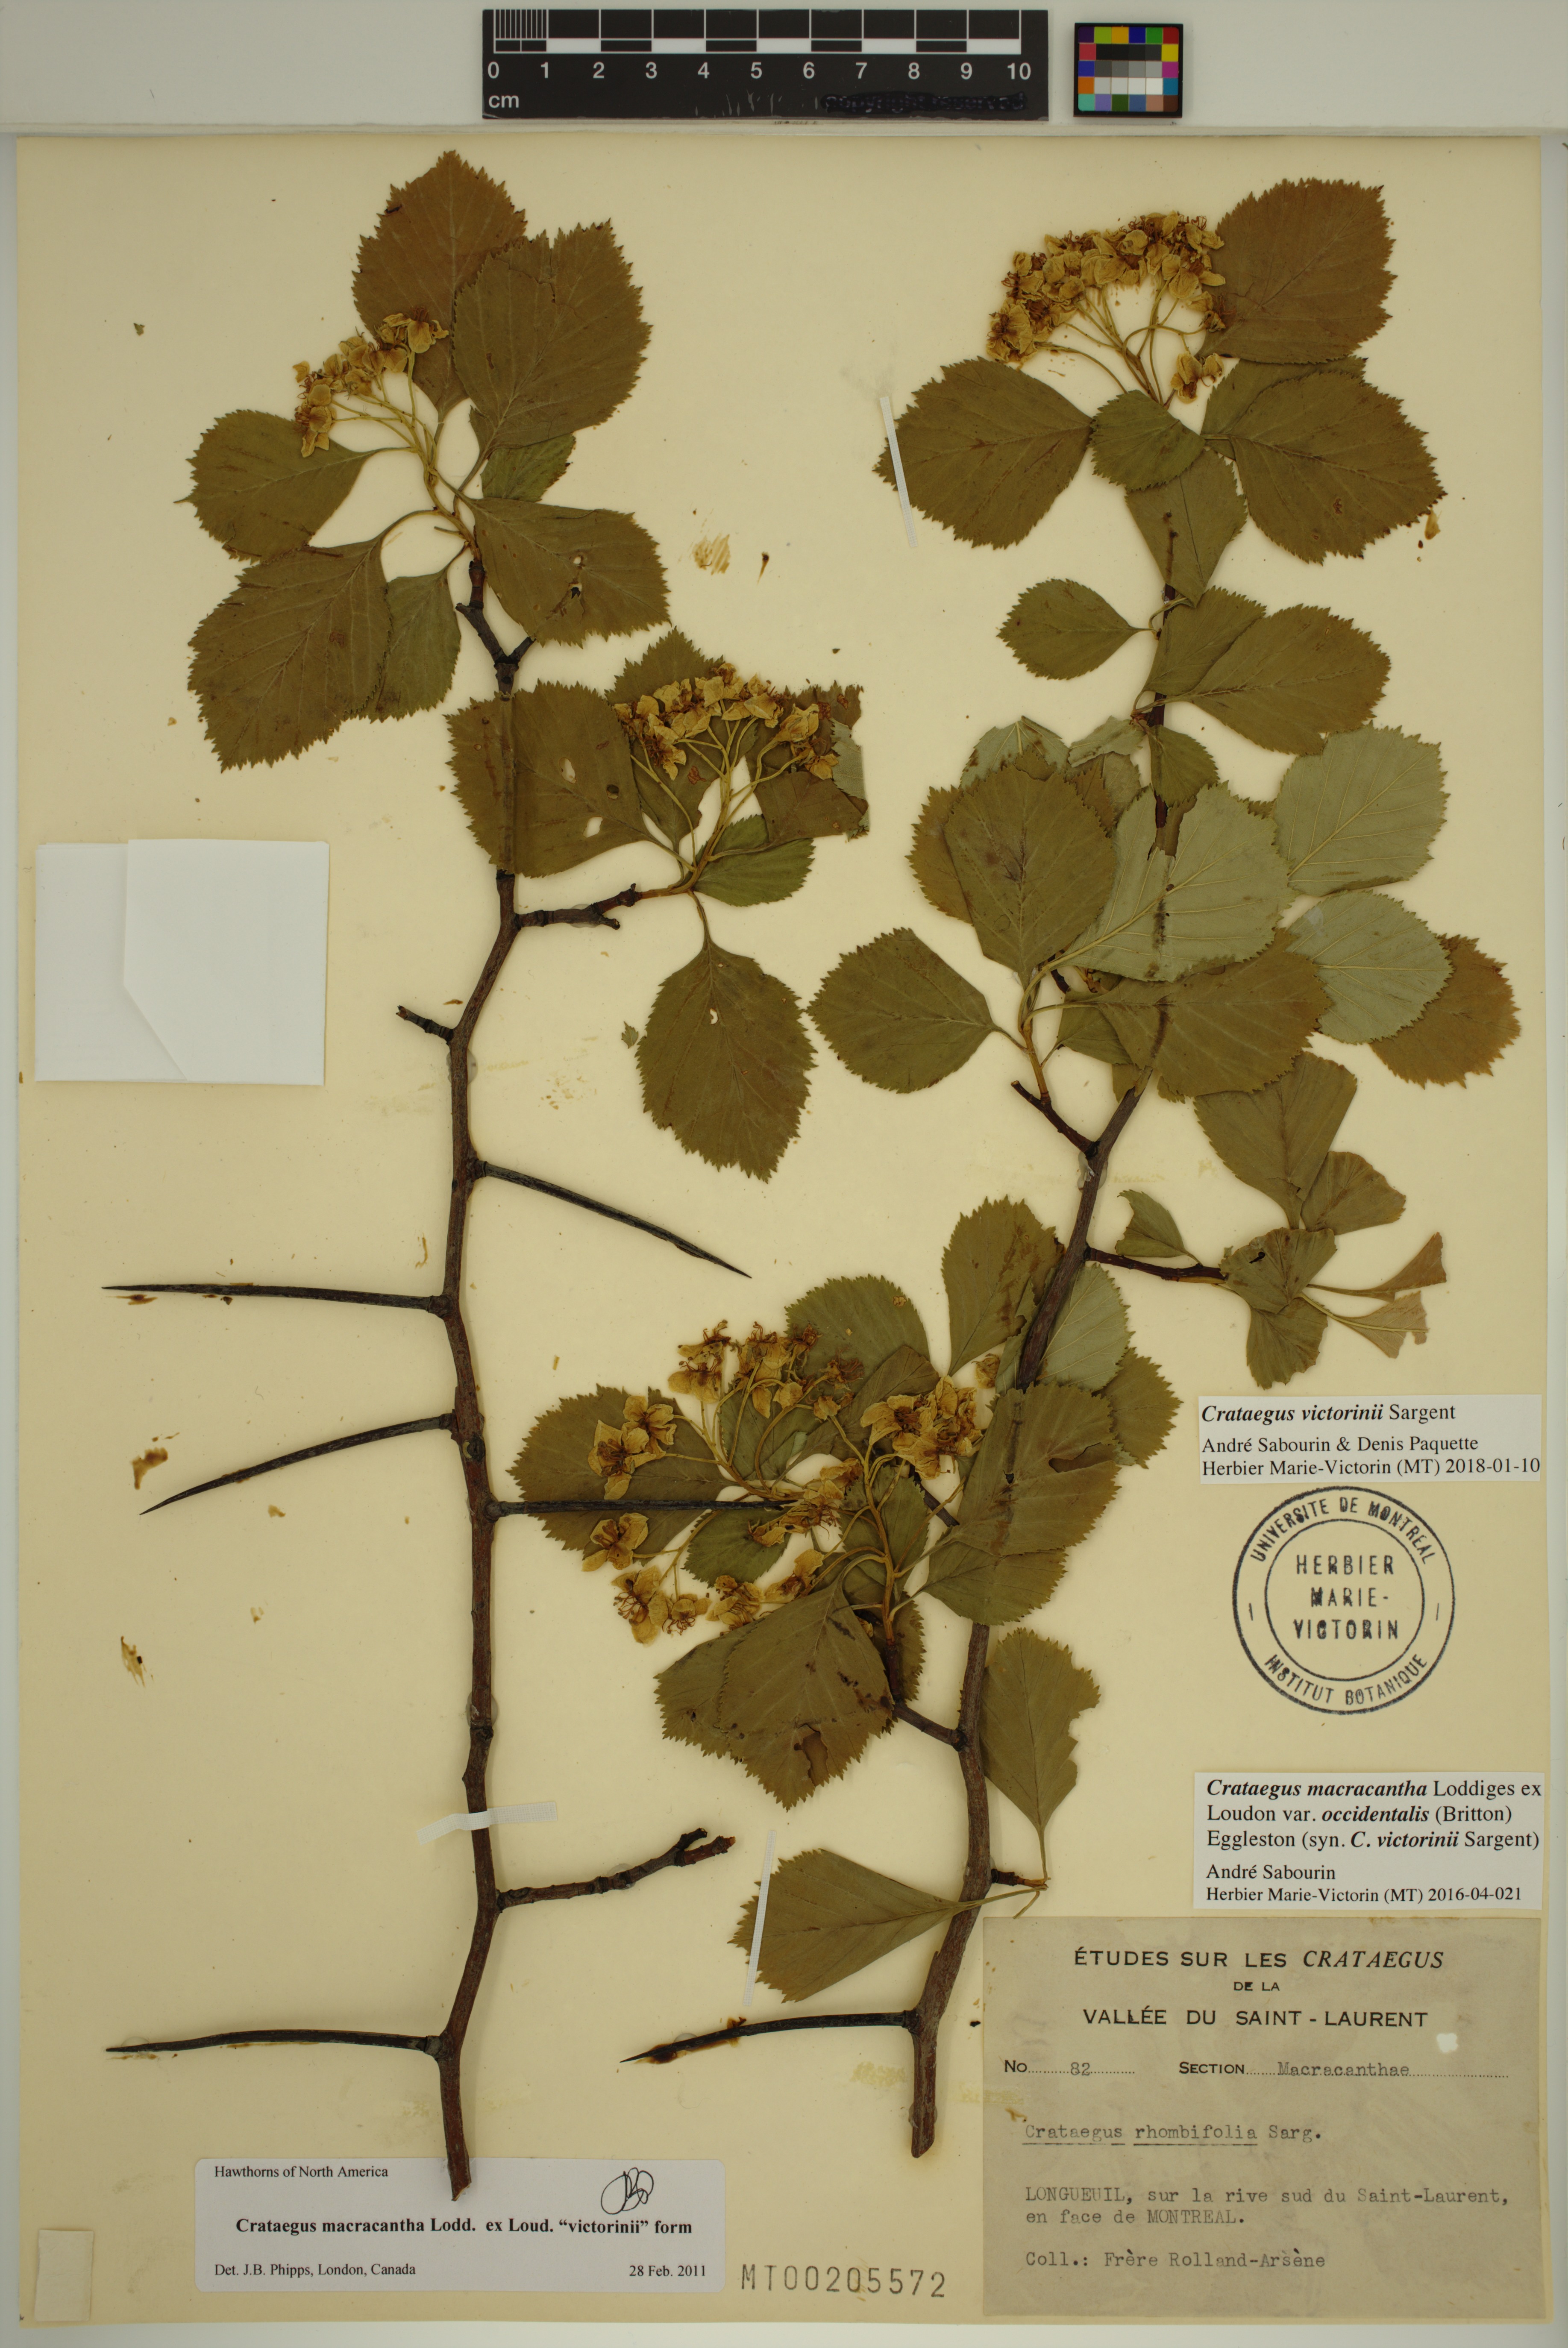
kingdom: Plantae
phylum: Tracheophyta
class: Magnoliopsida
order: Rosales
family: Rosaceae
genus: Crataegus
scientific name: Crataegus macracantha
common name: Large-thorn hawthorn
